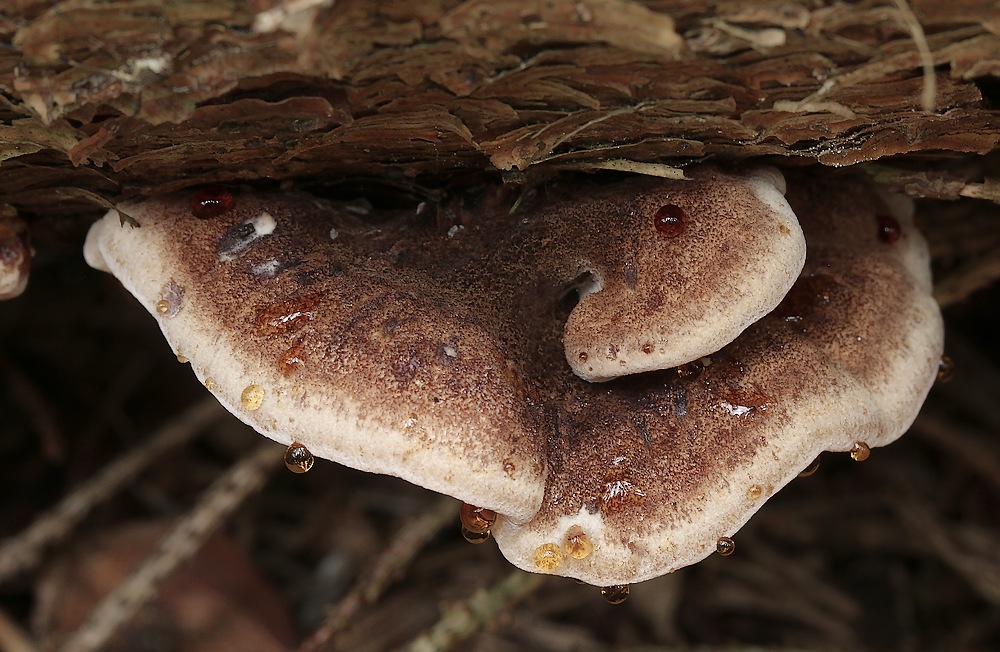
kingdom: Fungi
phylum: Basidiomycota
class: Agaricomycetes
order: Polyporales
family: Ischnodermataceae
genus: Ischnoderma
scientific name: Ischnoderma benzoinum
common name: gran-tjæreporesvamp
